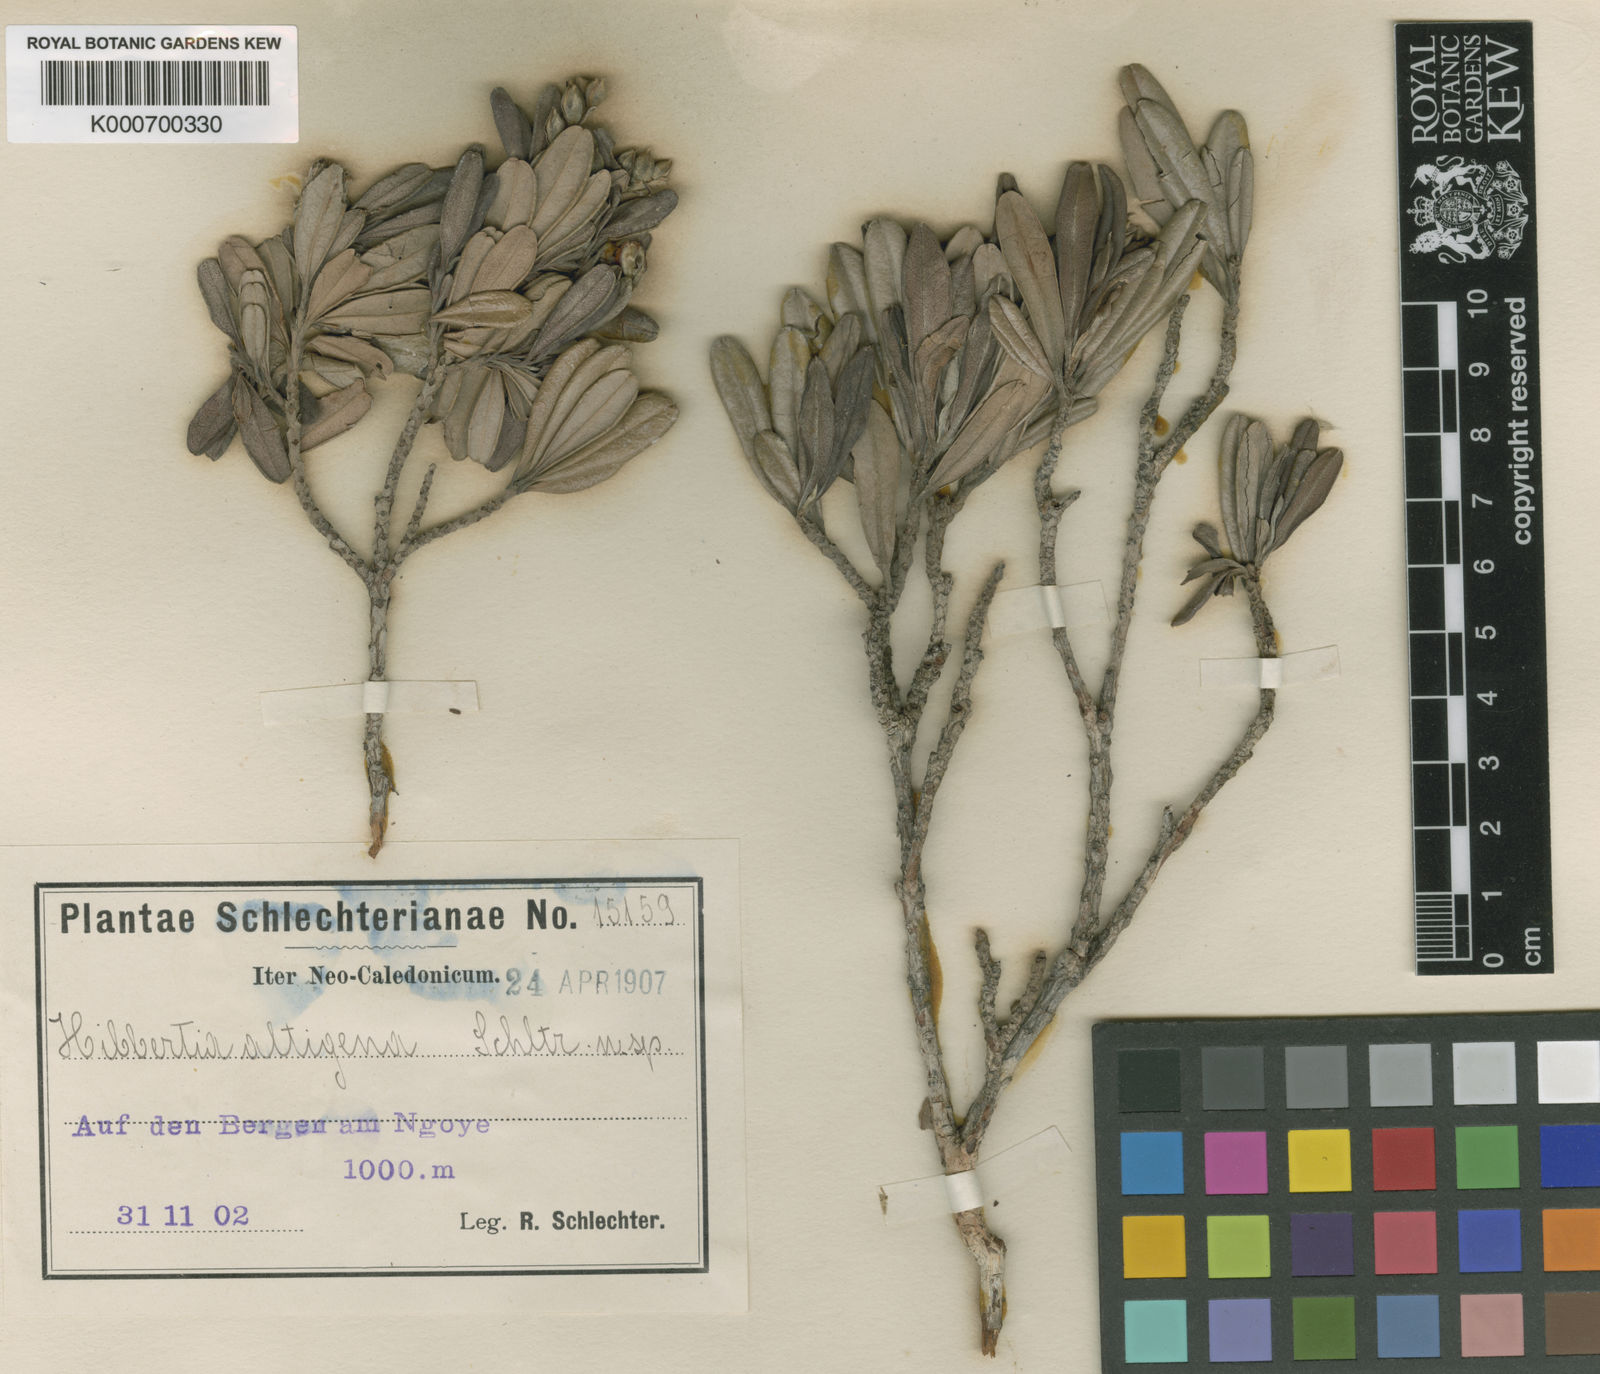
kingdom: Plantae
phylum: Tracheophyta
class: Magnoliopsida
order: Dilleniales
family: Dilleniaceae
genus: Hibbertia
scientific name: Hibbertia altigena
